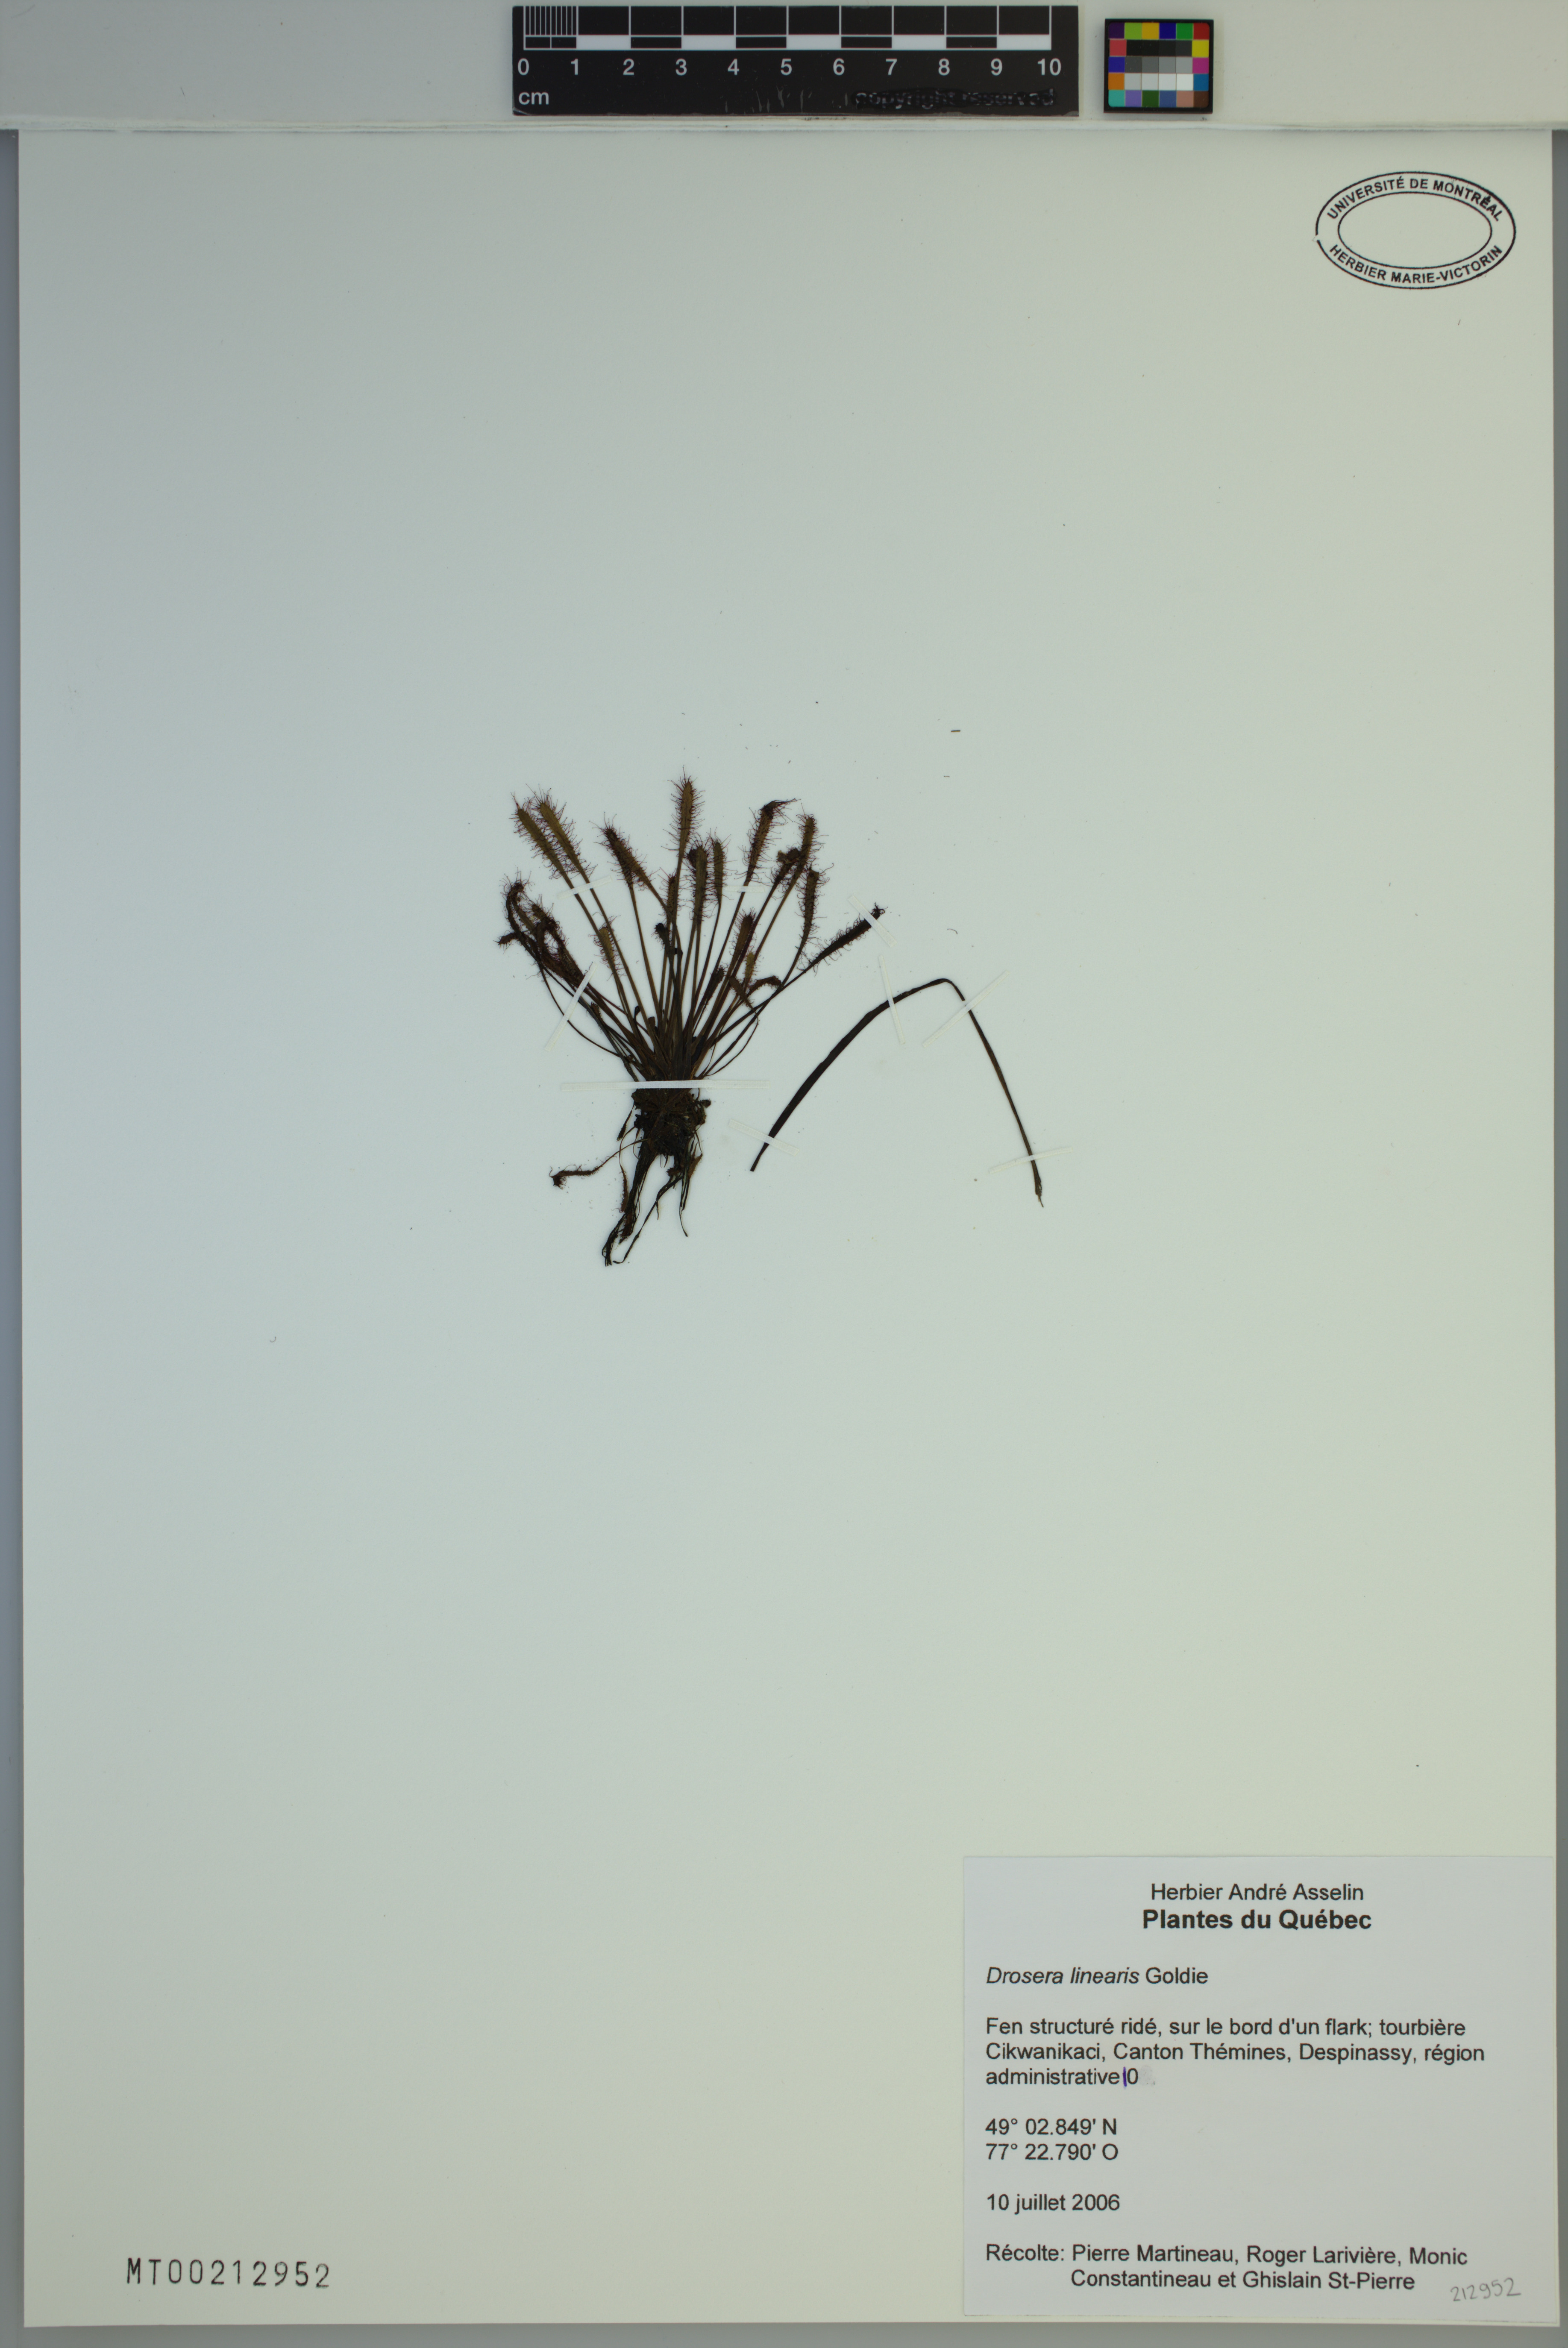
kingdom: Plantae
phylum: Tracheophyta
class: Magnoliopsida
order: Caryophyllales
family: Droseraceae
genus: Drosera
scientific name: Drosera linearis
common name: Linear-leaved sundew
